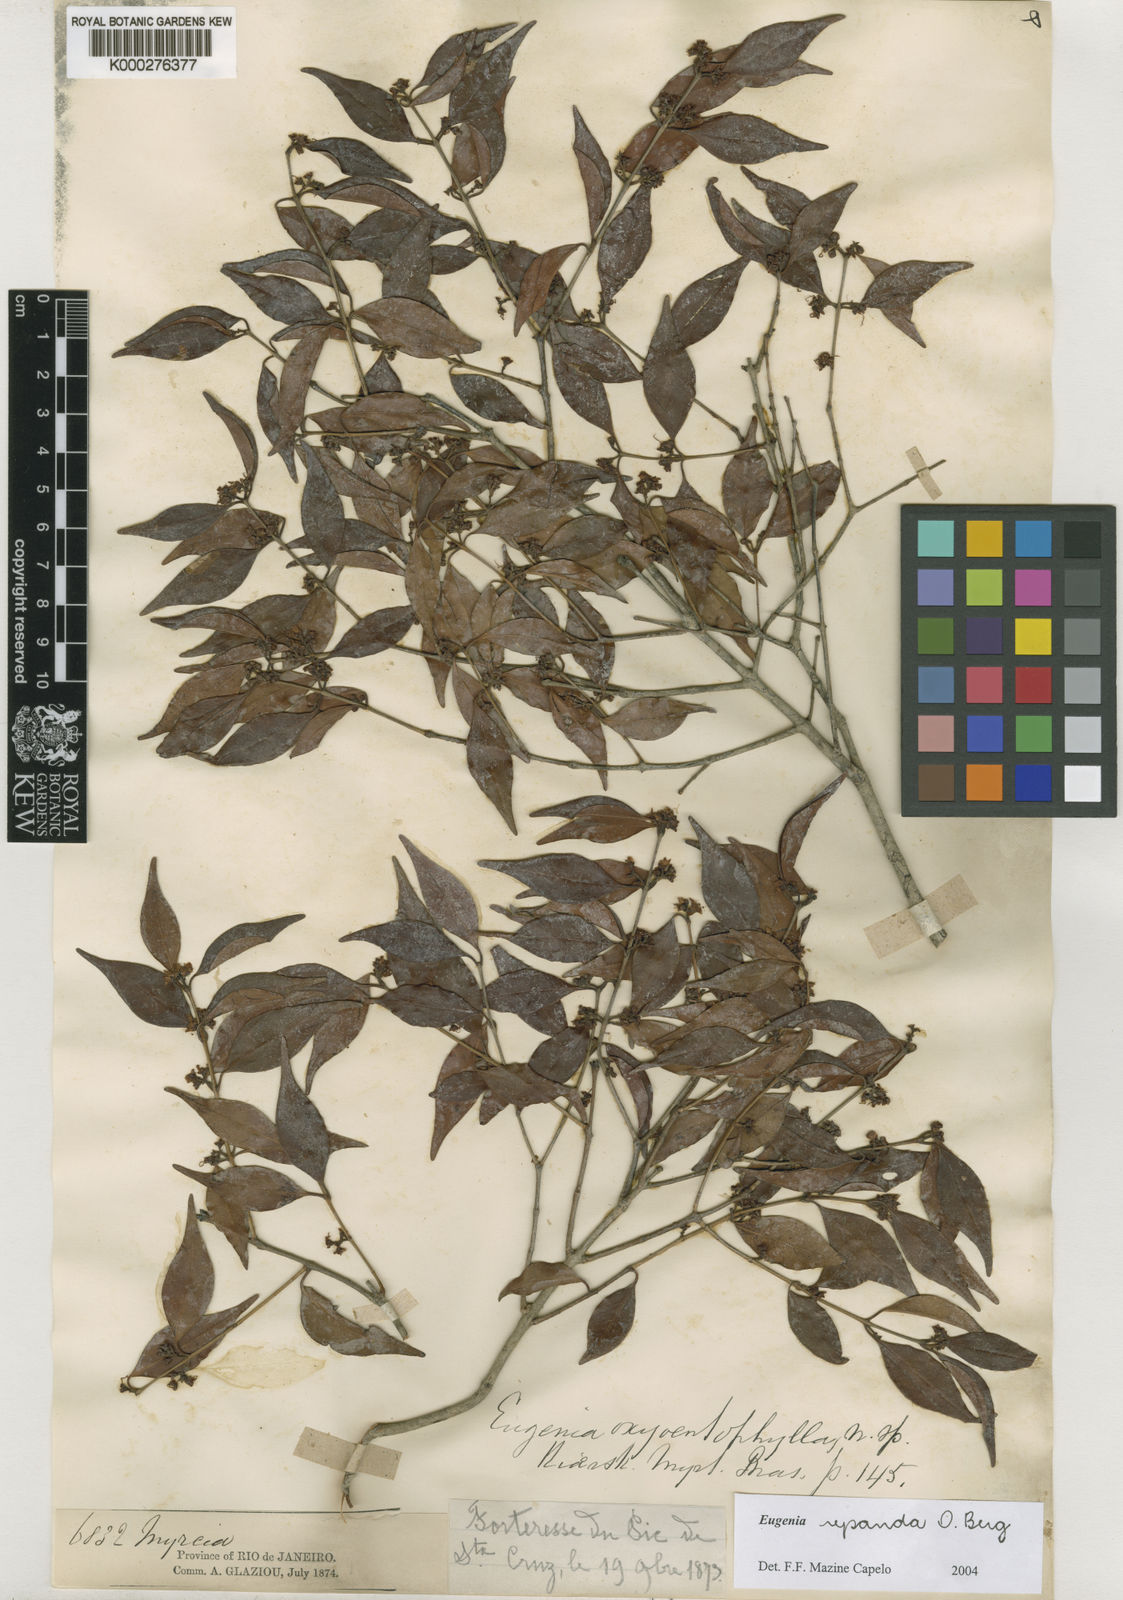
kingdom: Plantae
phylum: Tracheophyta
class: Magnoliopsida
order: Myrtales
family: Myrtaceae
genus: Eugenia
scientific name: Eugenia repanda
